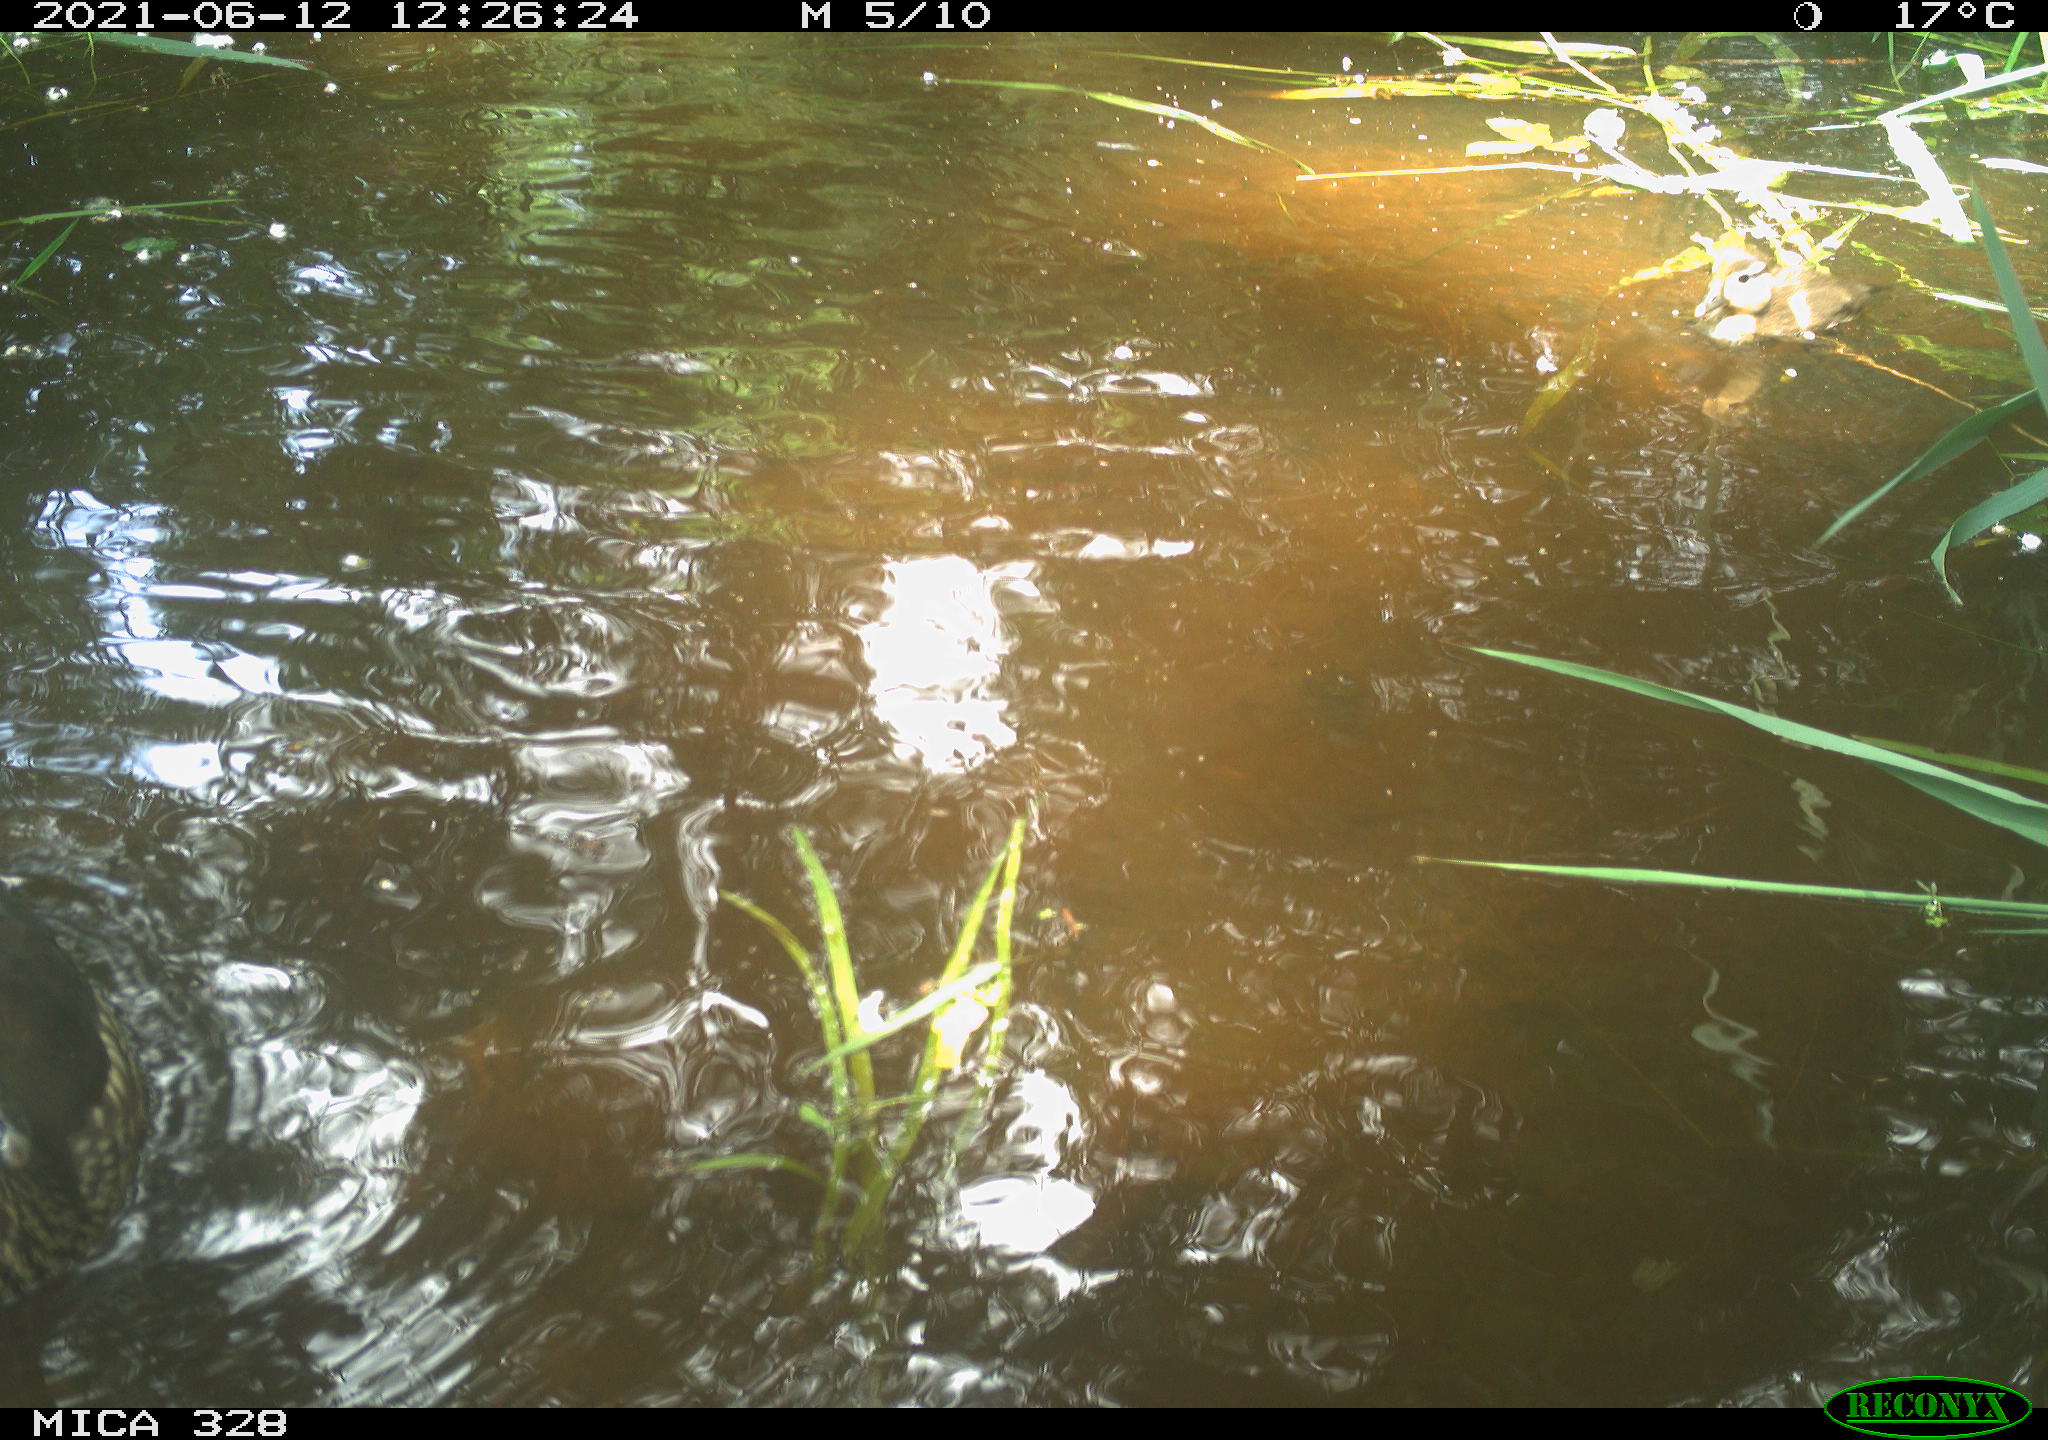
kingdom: Animalia
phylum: Chordata
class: Aves
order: Anseriformes
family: Anatidae
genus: Aix
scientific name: Aix galericulata
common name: Mandarin duck
